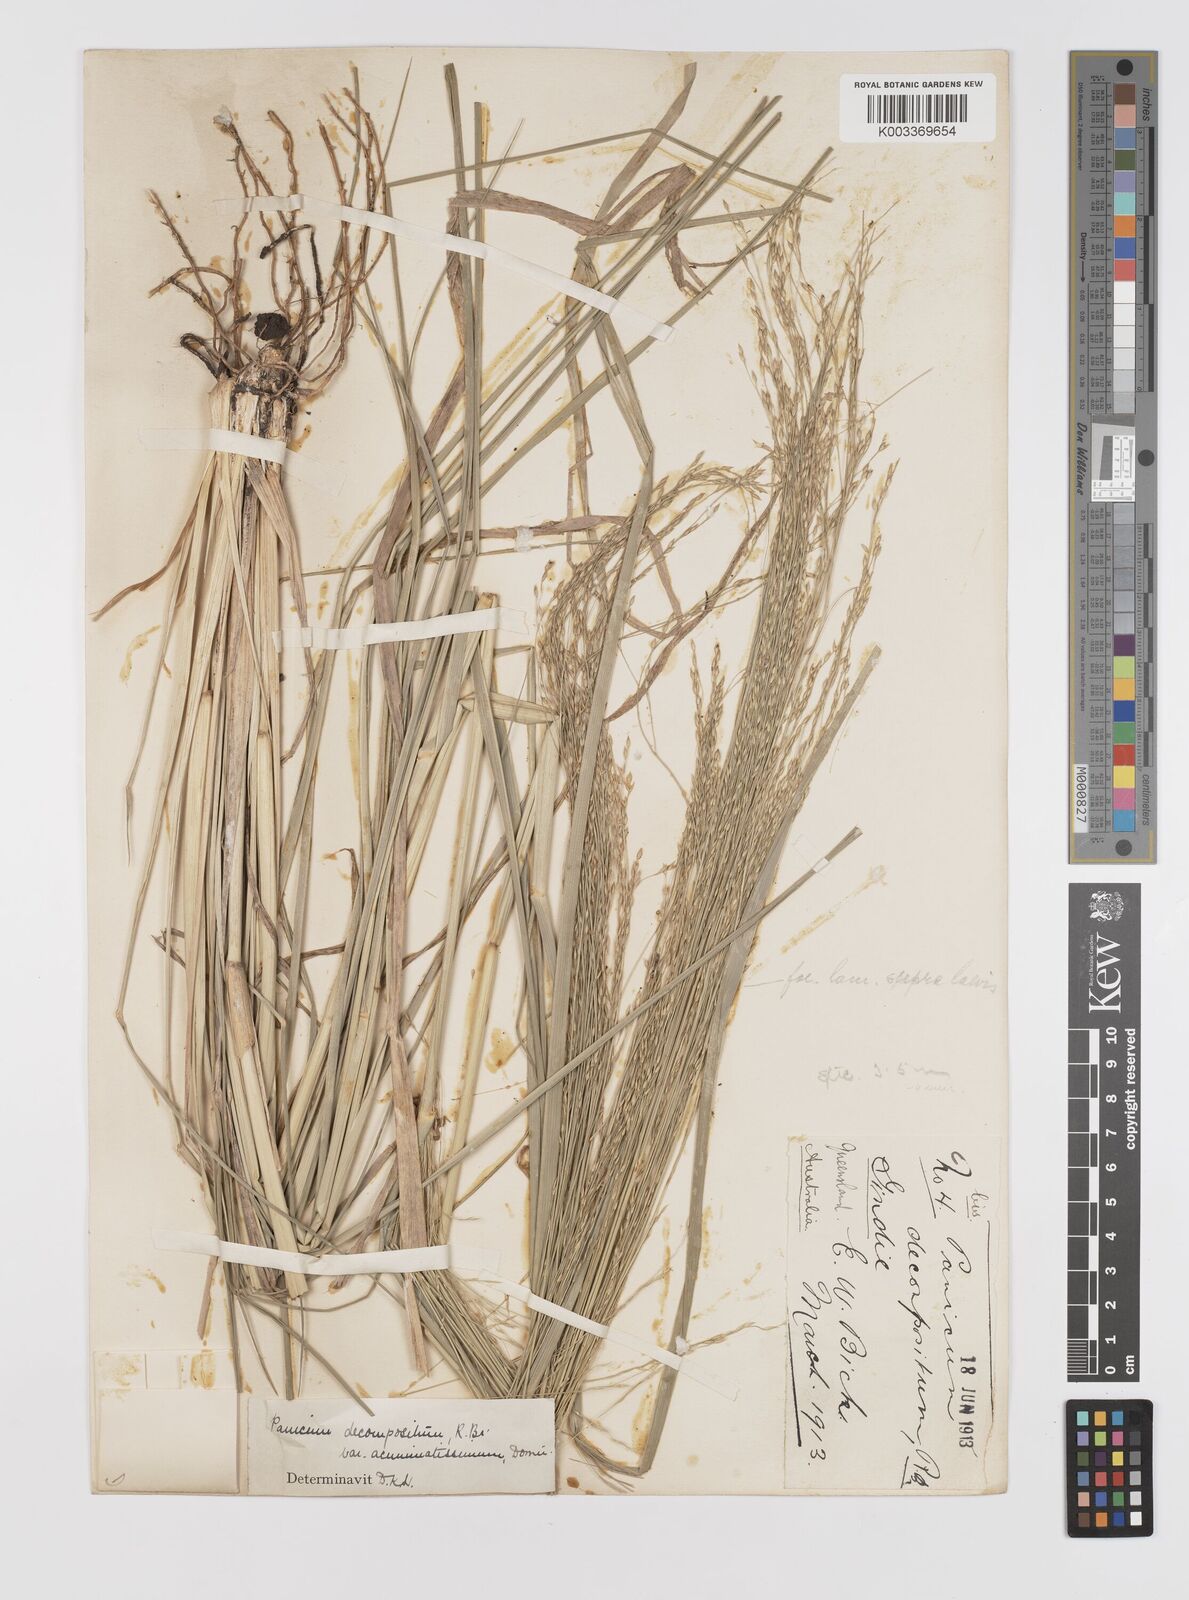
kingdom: Plantae
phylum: Tracheophyta
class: Liliopsida
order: Poales
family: Poaceae
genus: Panicum
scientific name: Panicum decompositum
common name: Australian millet
